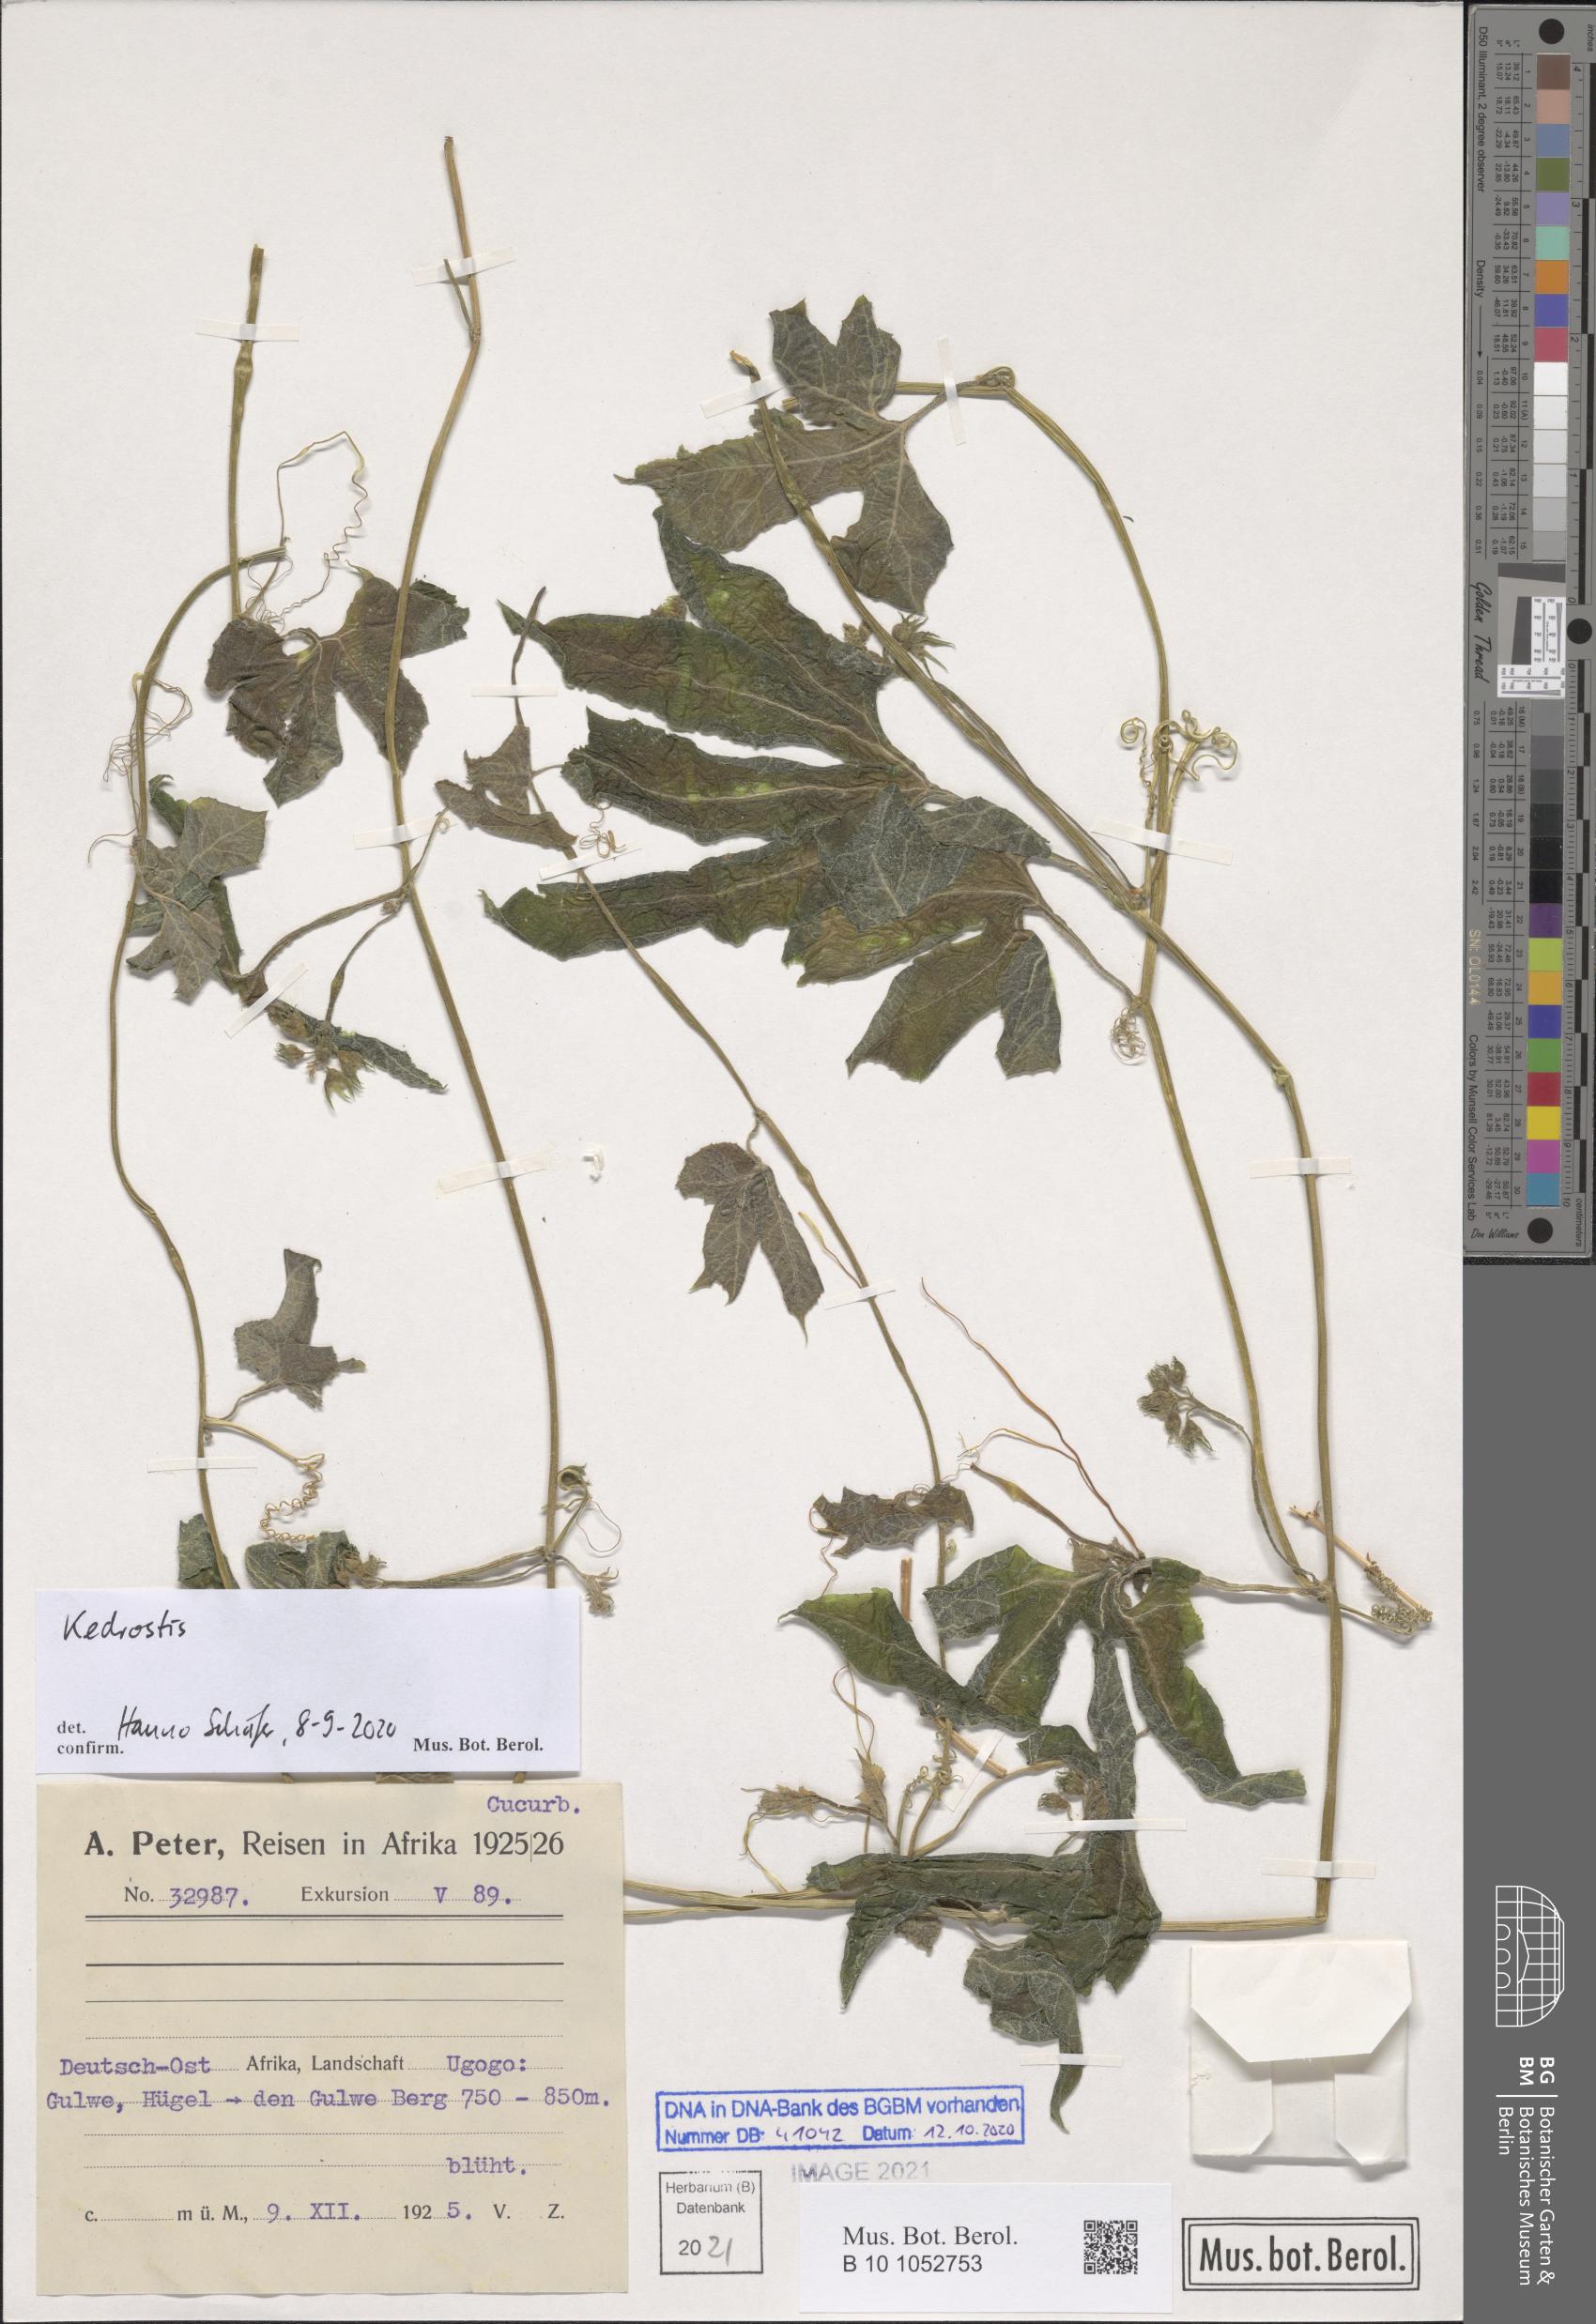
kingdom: Plantae
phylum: Tracheophyta
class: Magnoliopsida
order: Cucurbitales
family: Cucurbitaceae
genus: Kedrostis
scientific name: Kedrostis
